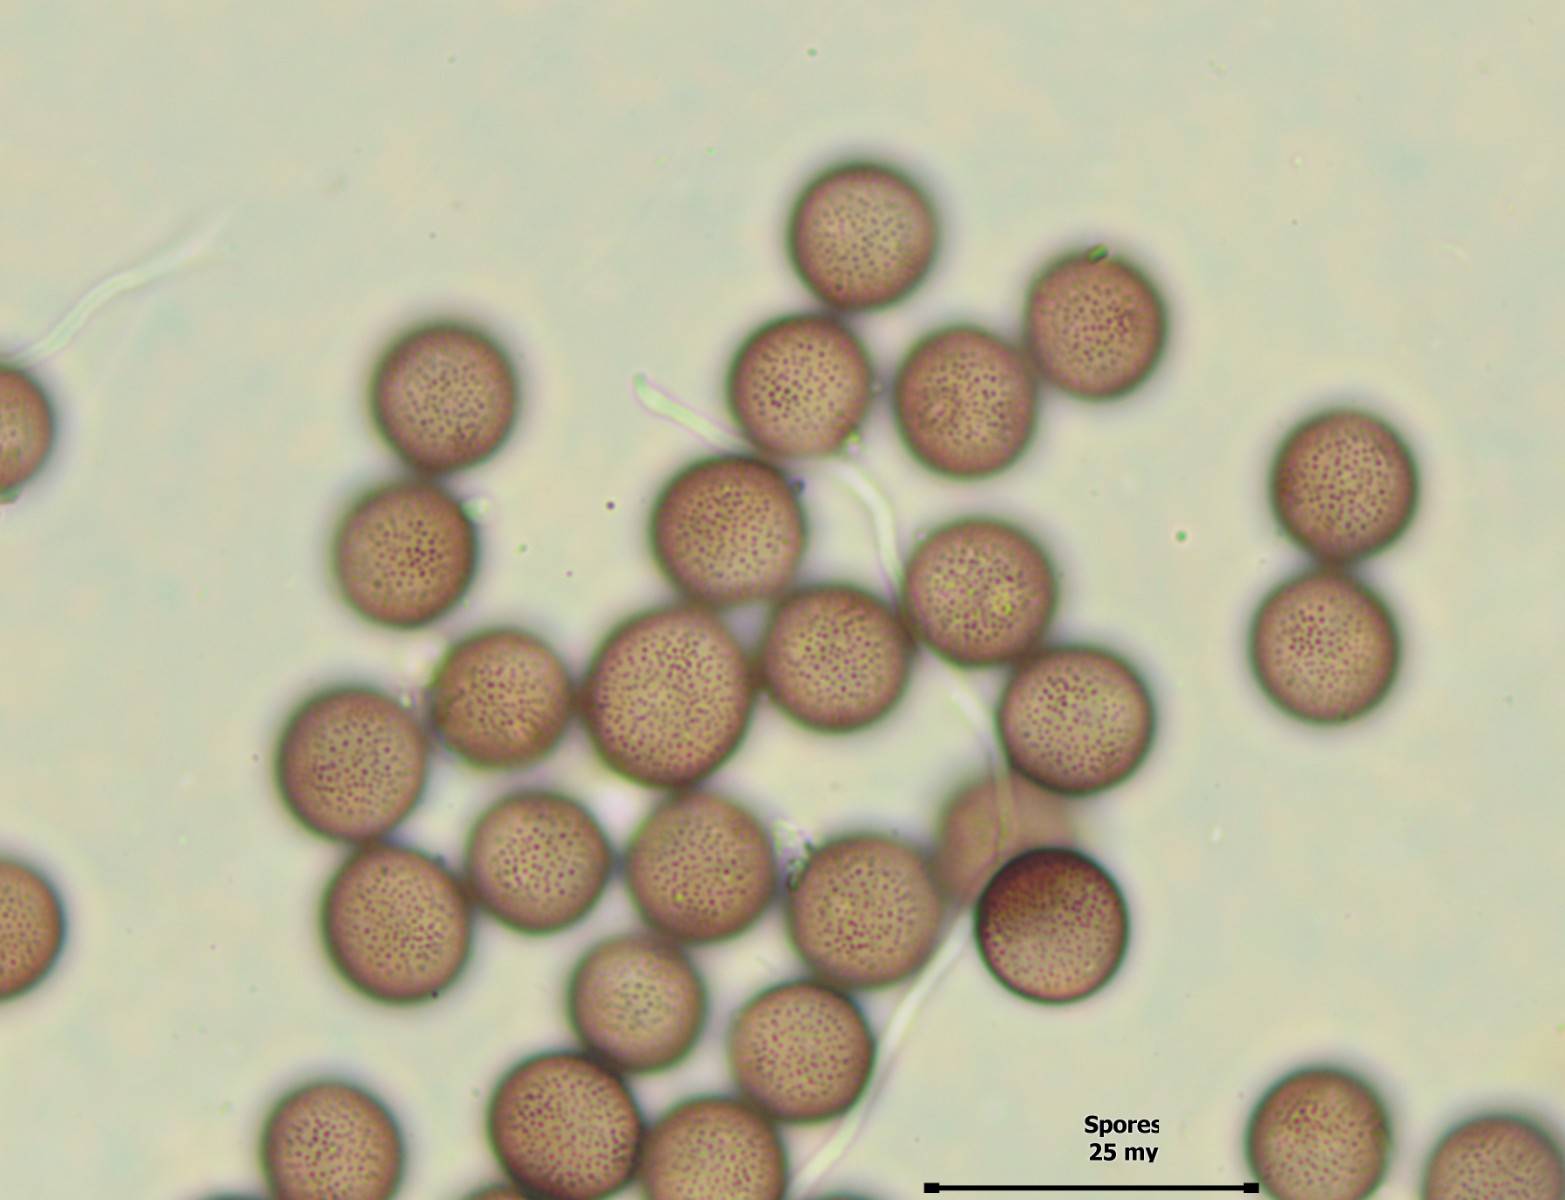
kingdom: Protozoa
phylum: Mycetozoa
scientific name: Mycetozoa
